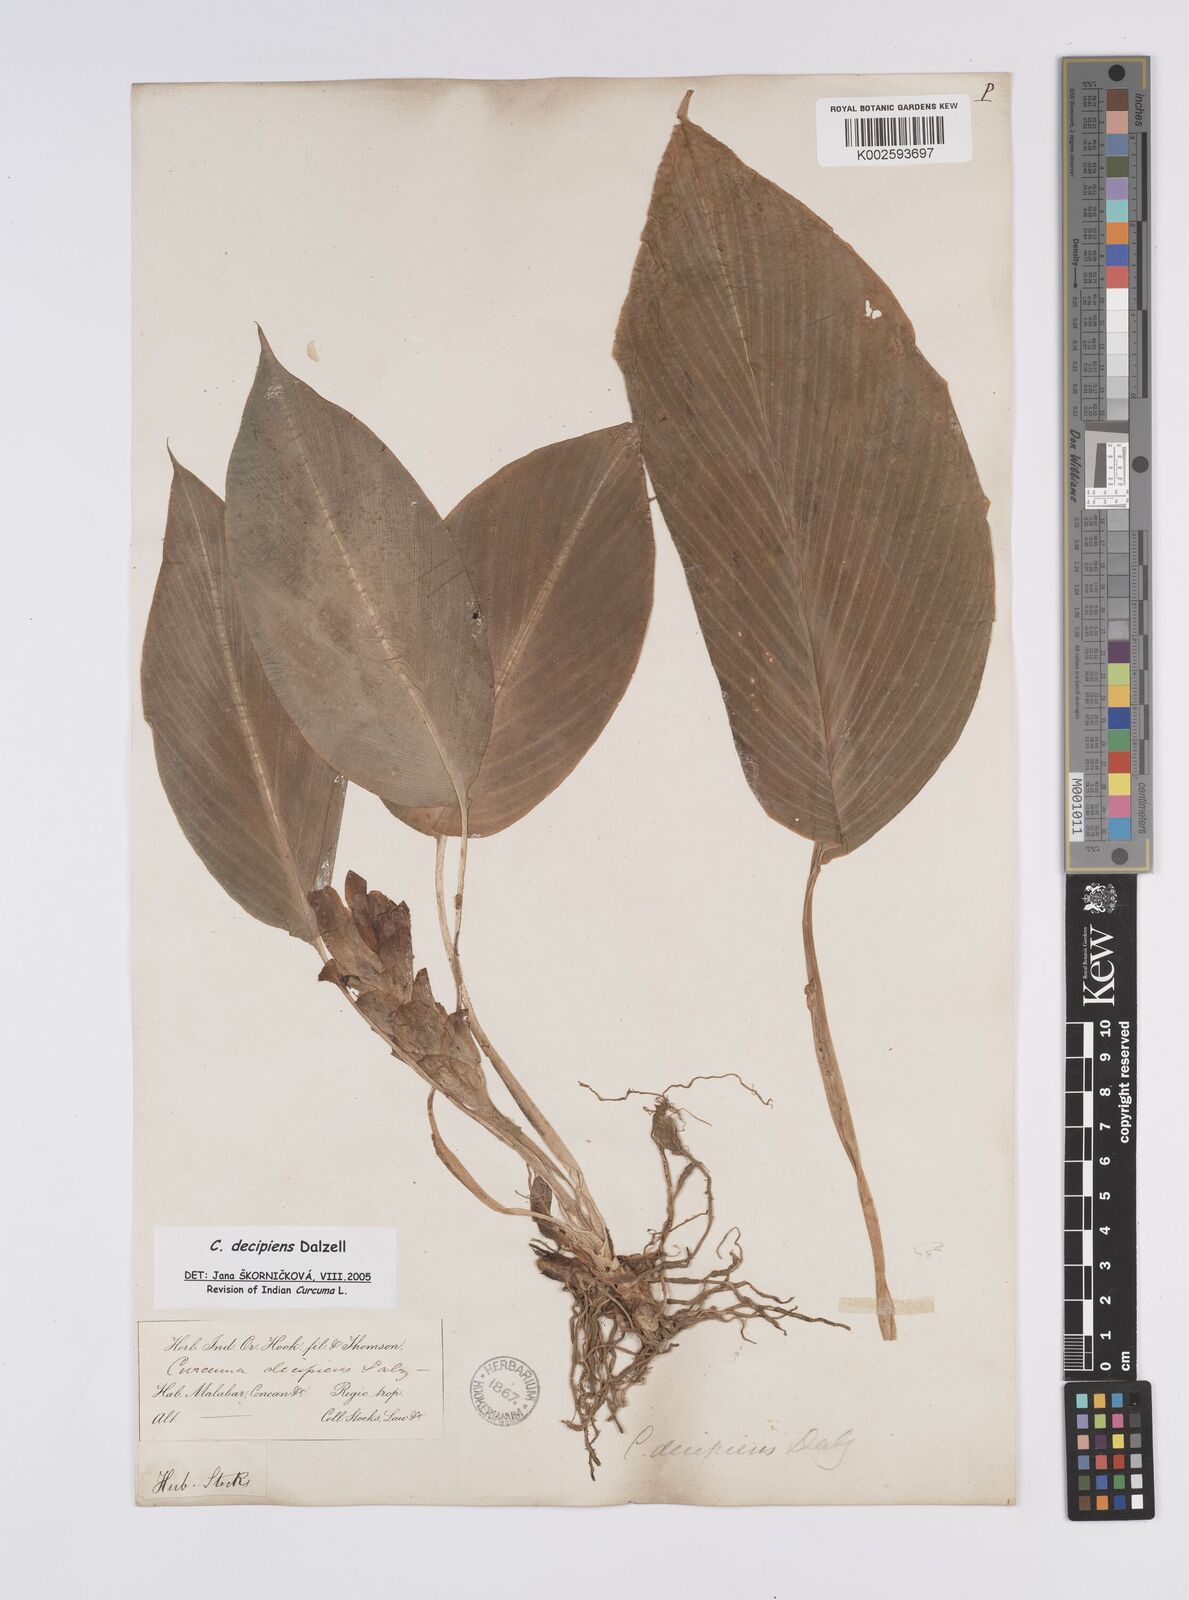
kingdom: Plantae
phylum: Tracheophyta
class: Liliopsida
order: Zingiberales
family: Zingiberaceae
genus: Curcuma
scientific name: Curcuma decipiens
